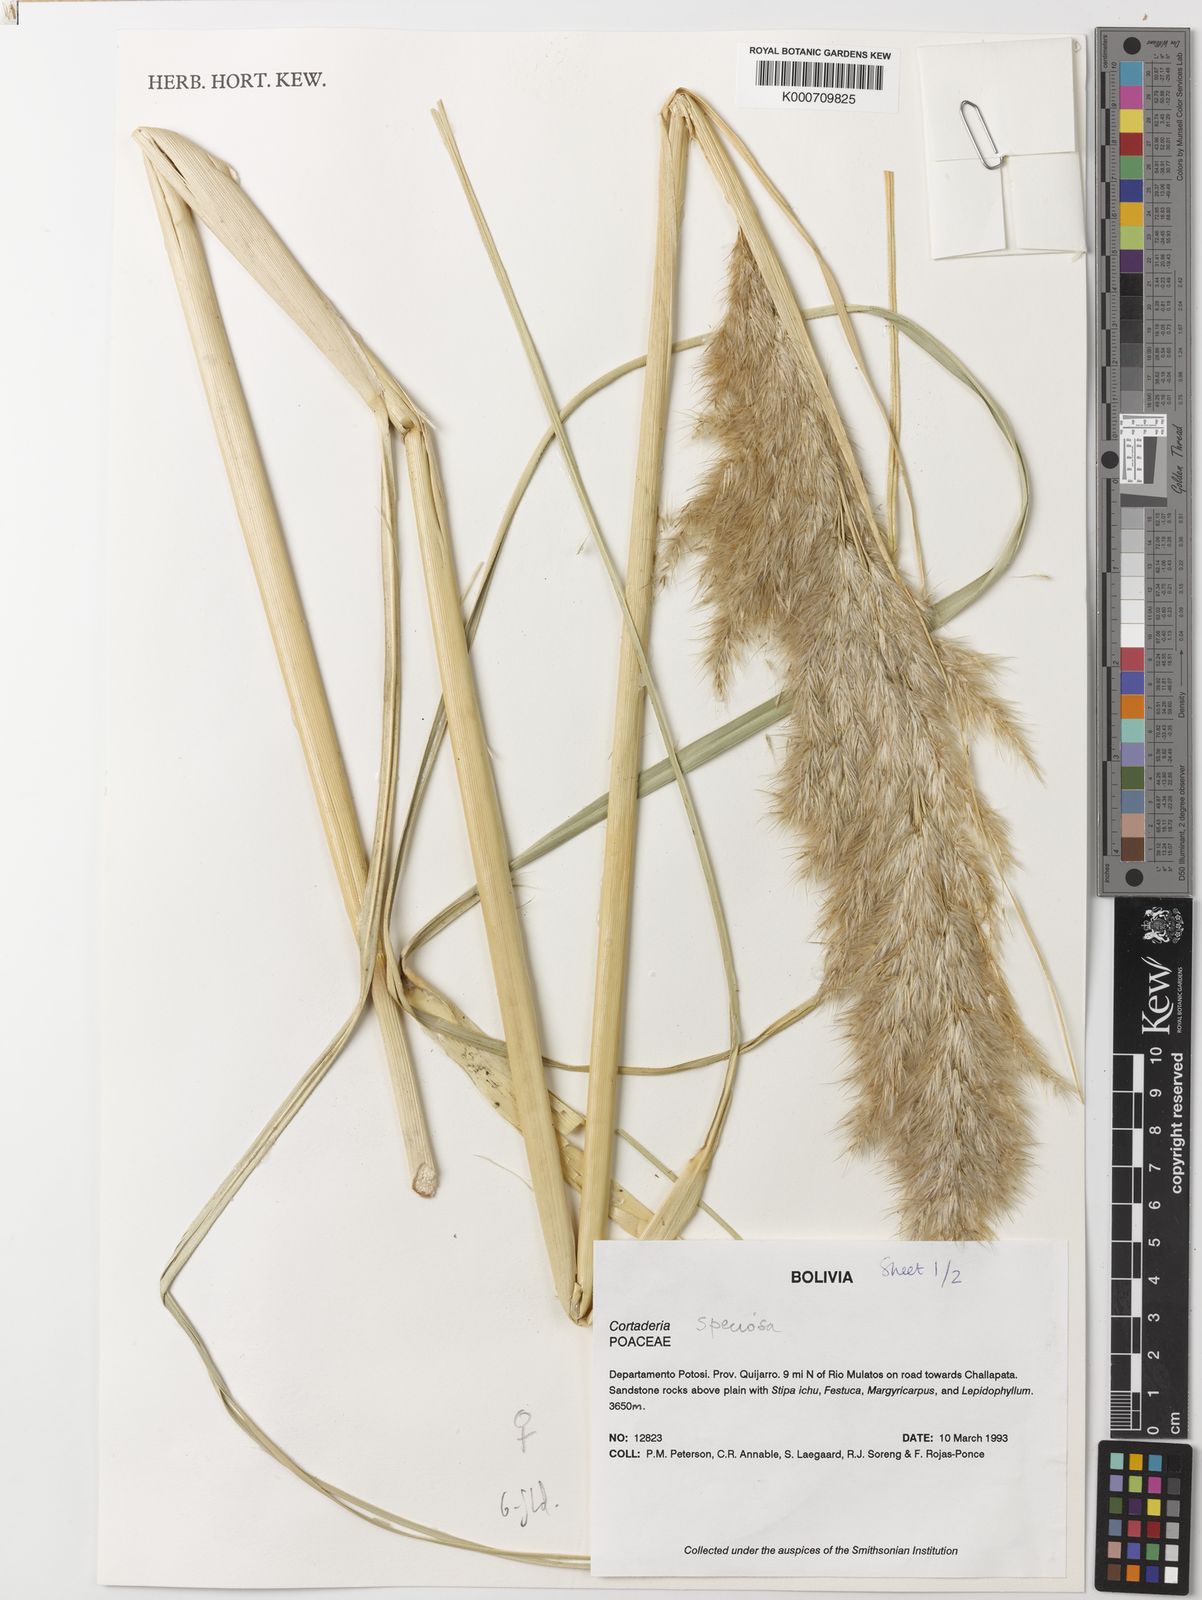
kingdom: Plantae
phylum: Tracheophyta
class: Liliopsida
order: Poales
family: Poaceae
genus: Cortaderia
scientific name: Cortaderia speciosa
